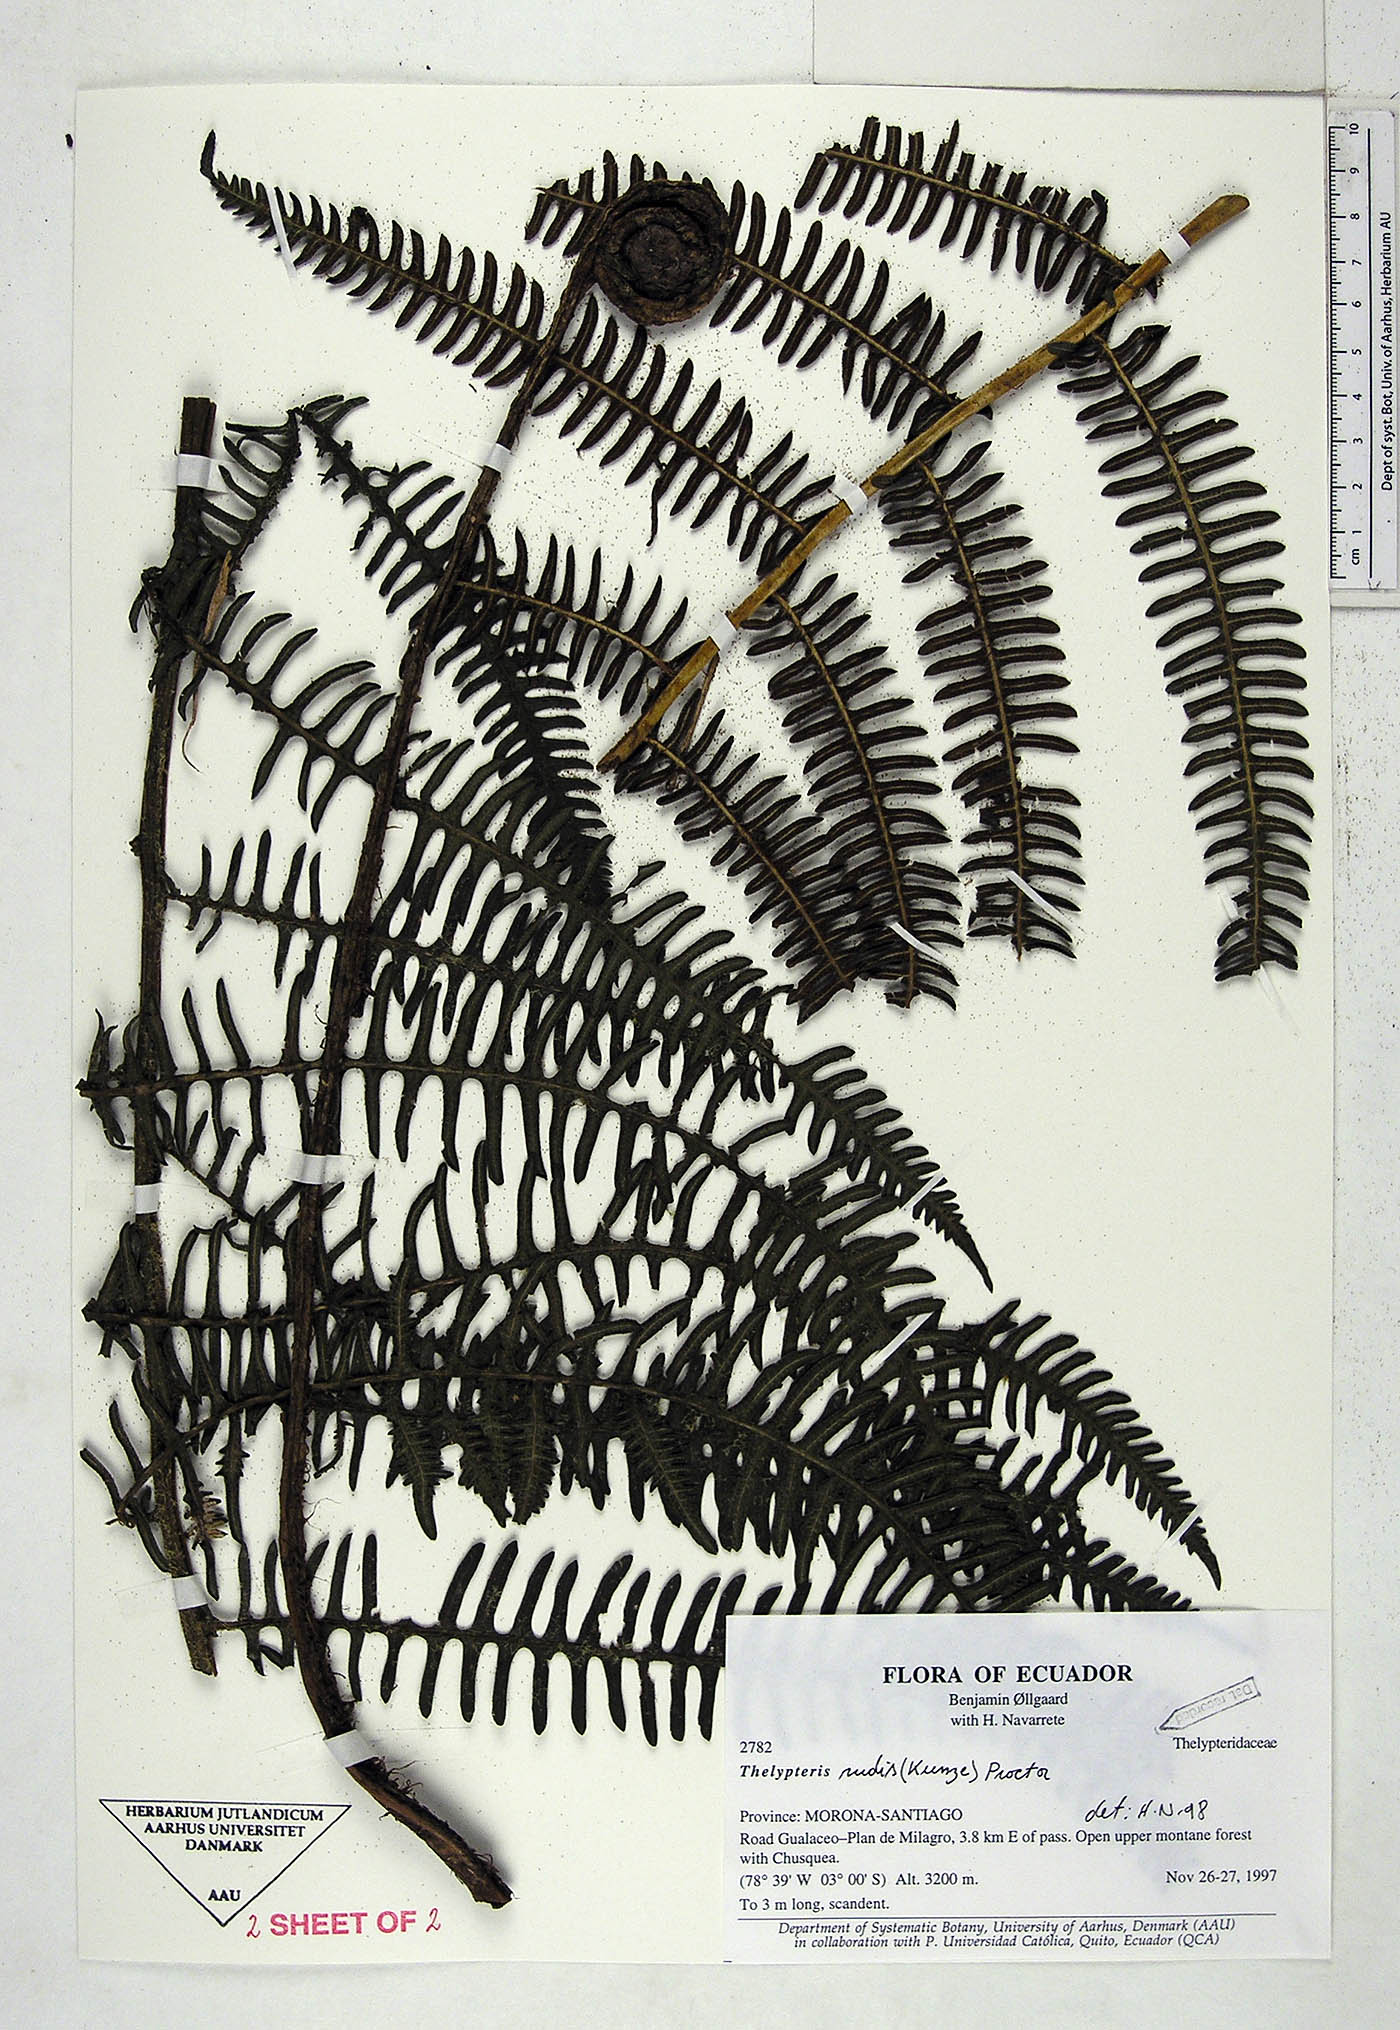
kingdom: Plantae
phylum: Tracheophyta
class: Polypodiopsida
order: Polypodiales
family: Thelypteridaceae
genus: Amauropelta
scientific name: Amauropelta rudis
